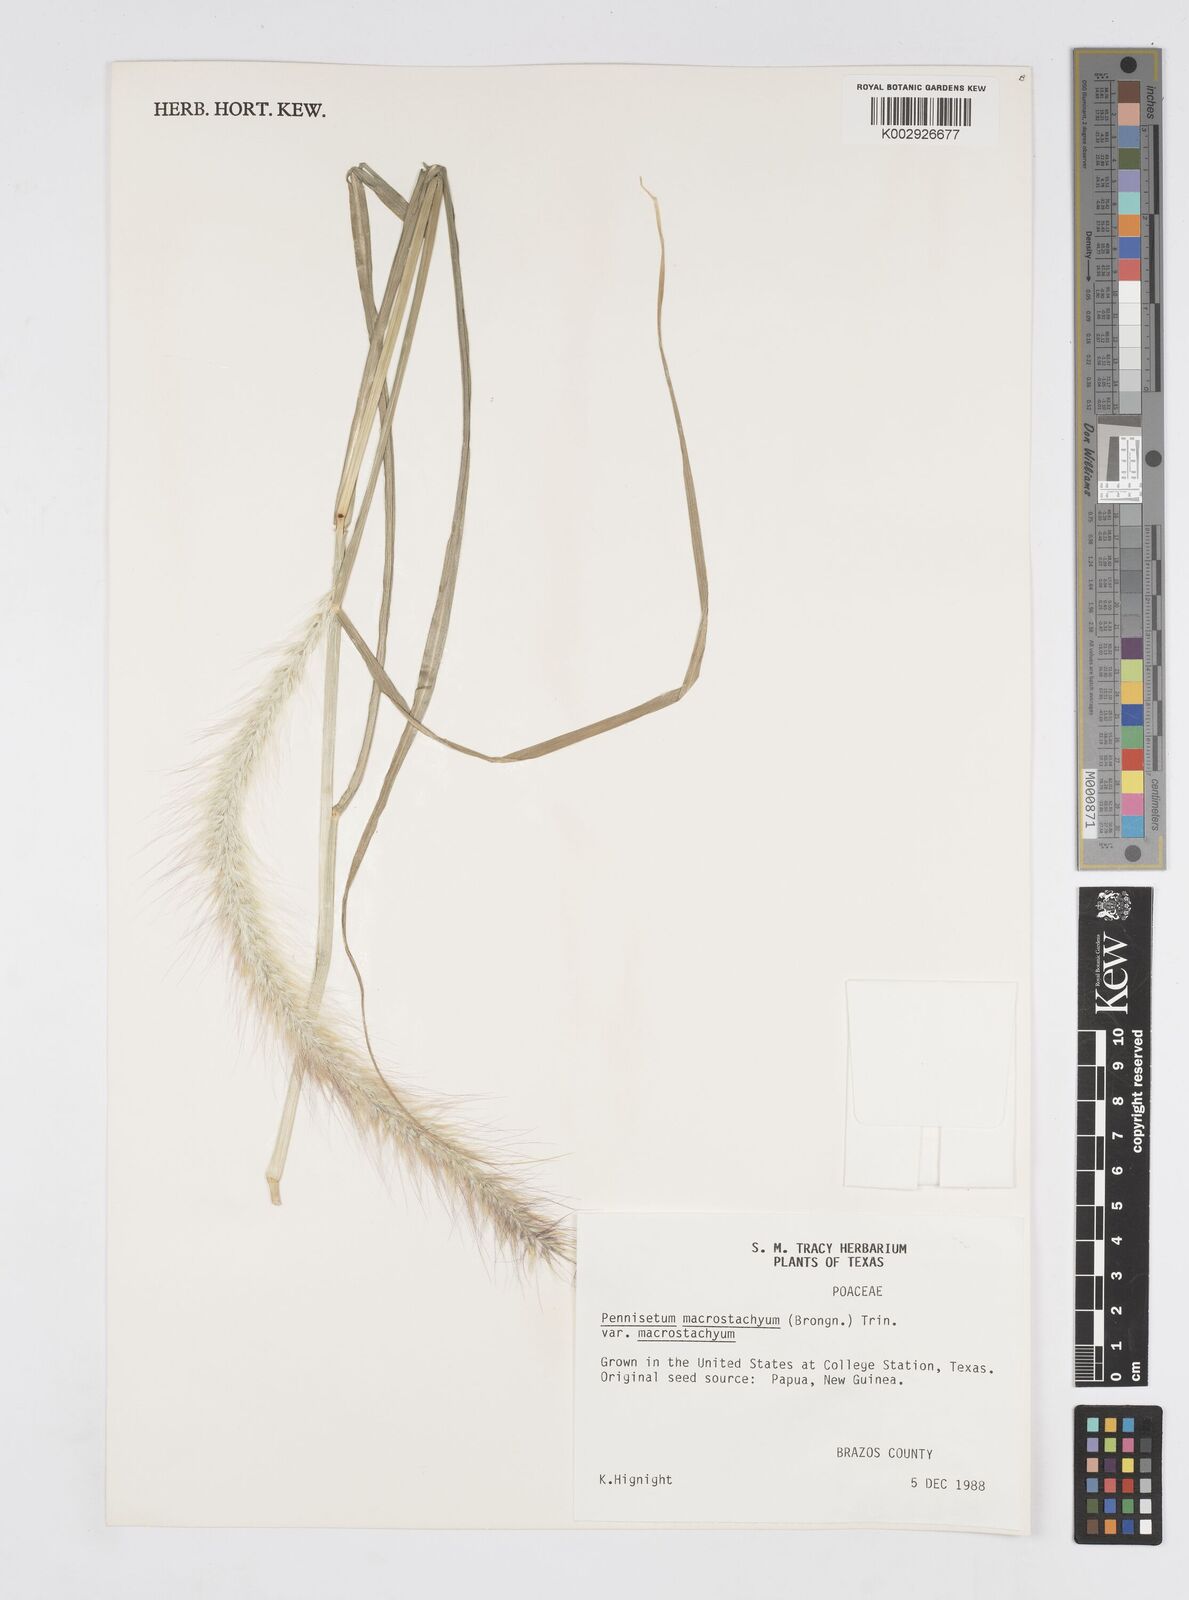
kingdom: Plantae
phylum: Tracheophyta
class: Liliopsida
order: Poales
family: Poaceae
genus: Cenchrus
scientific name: Cenchrus purpureus
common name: Elephant grass
